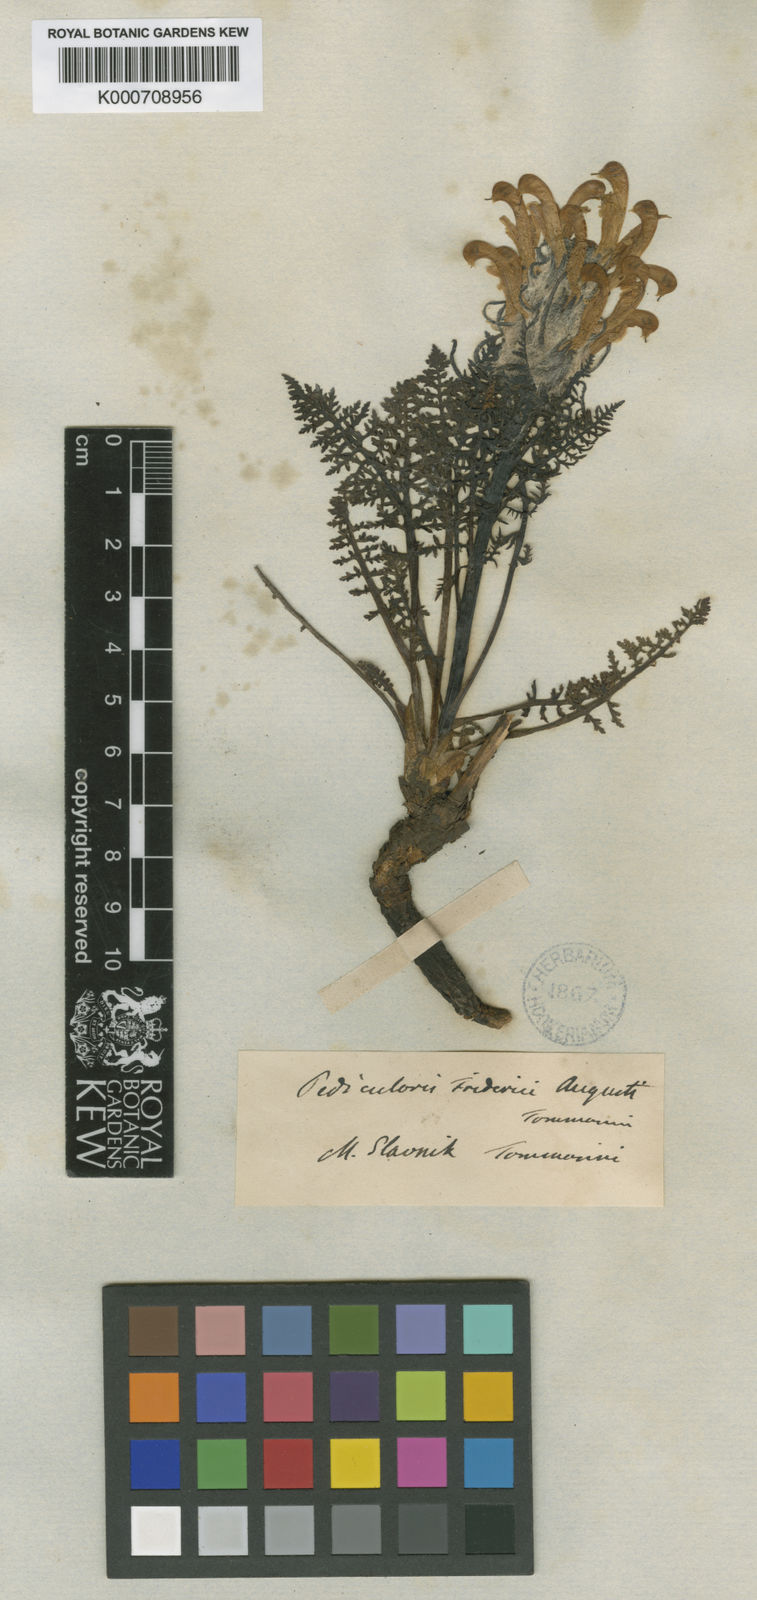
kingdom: Plantae
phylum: Tracheophyta
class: Magnoliopsida
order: Lamiales
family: Orobanchaceae
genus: Pedicularis
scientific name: Pedicularis friderici-augusti
